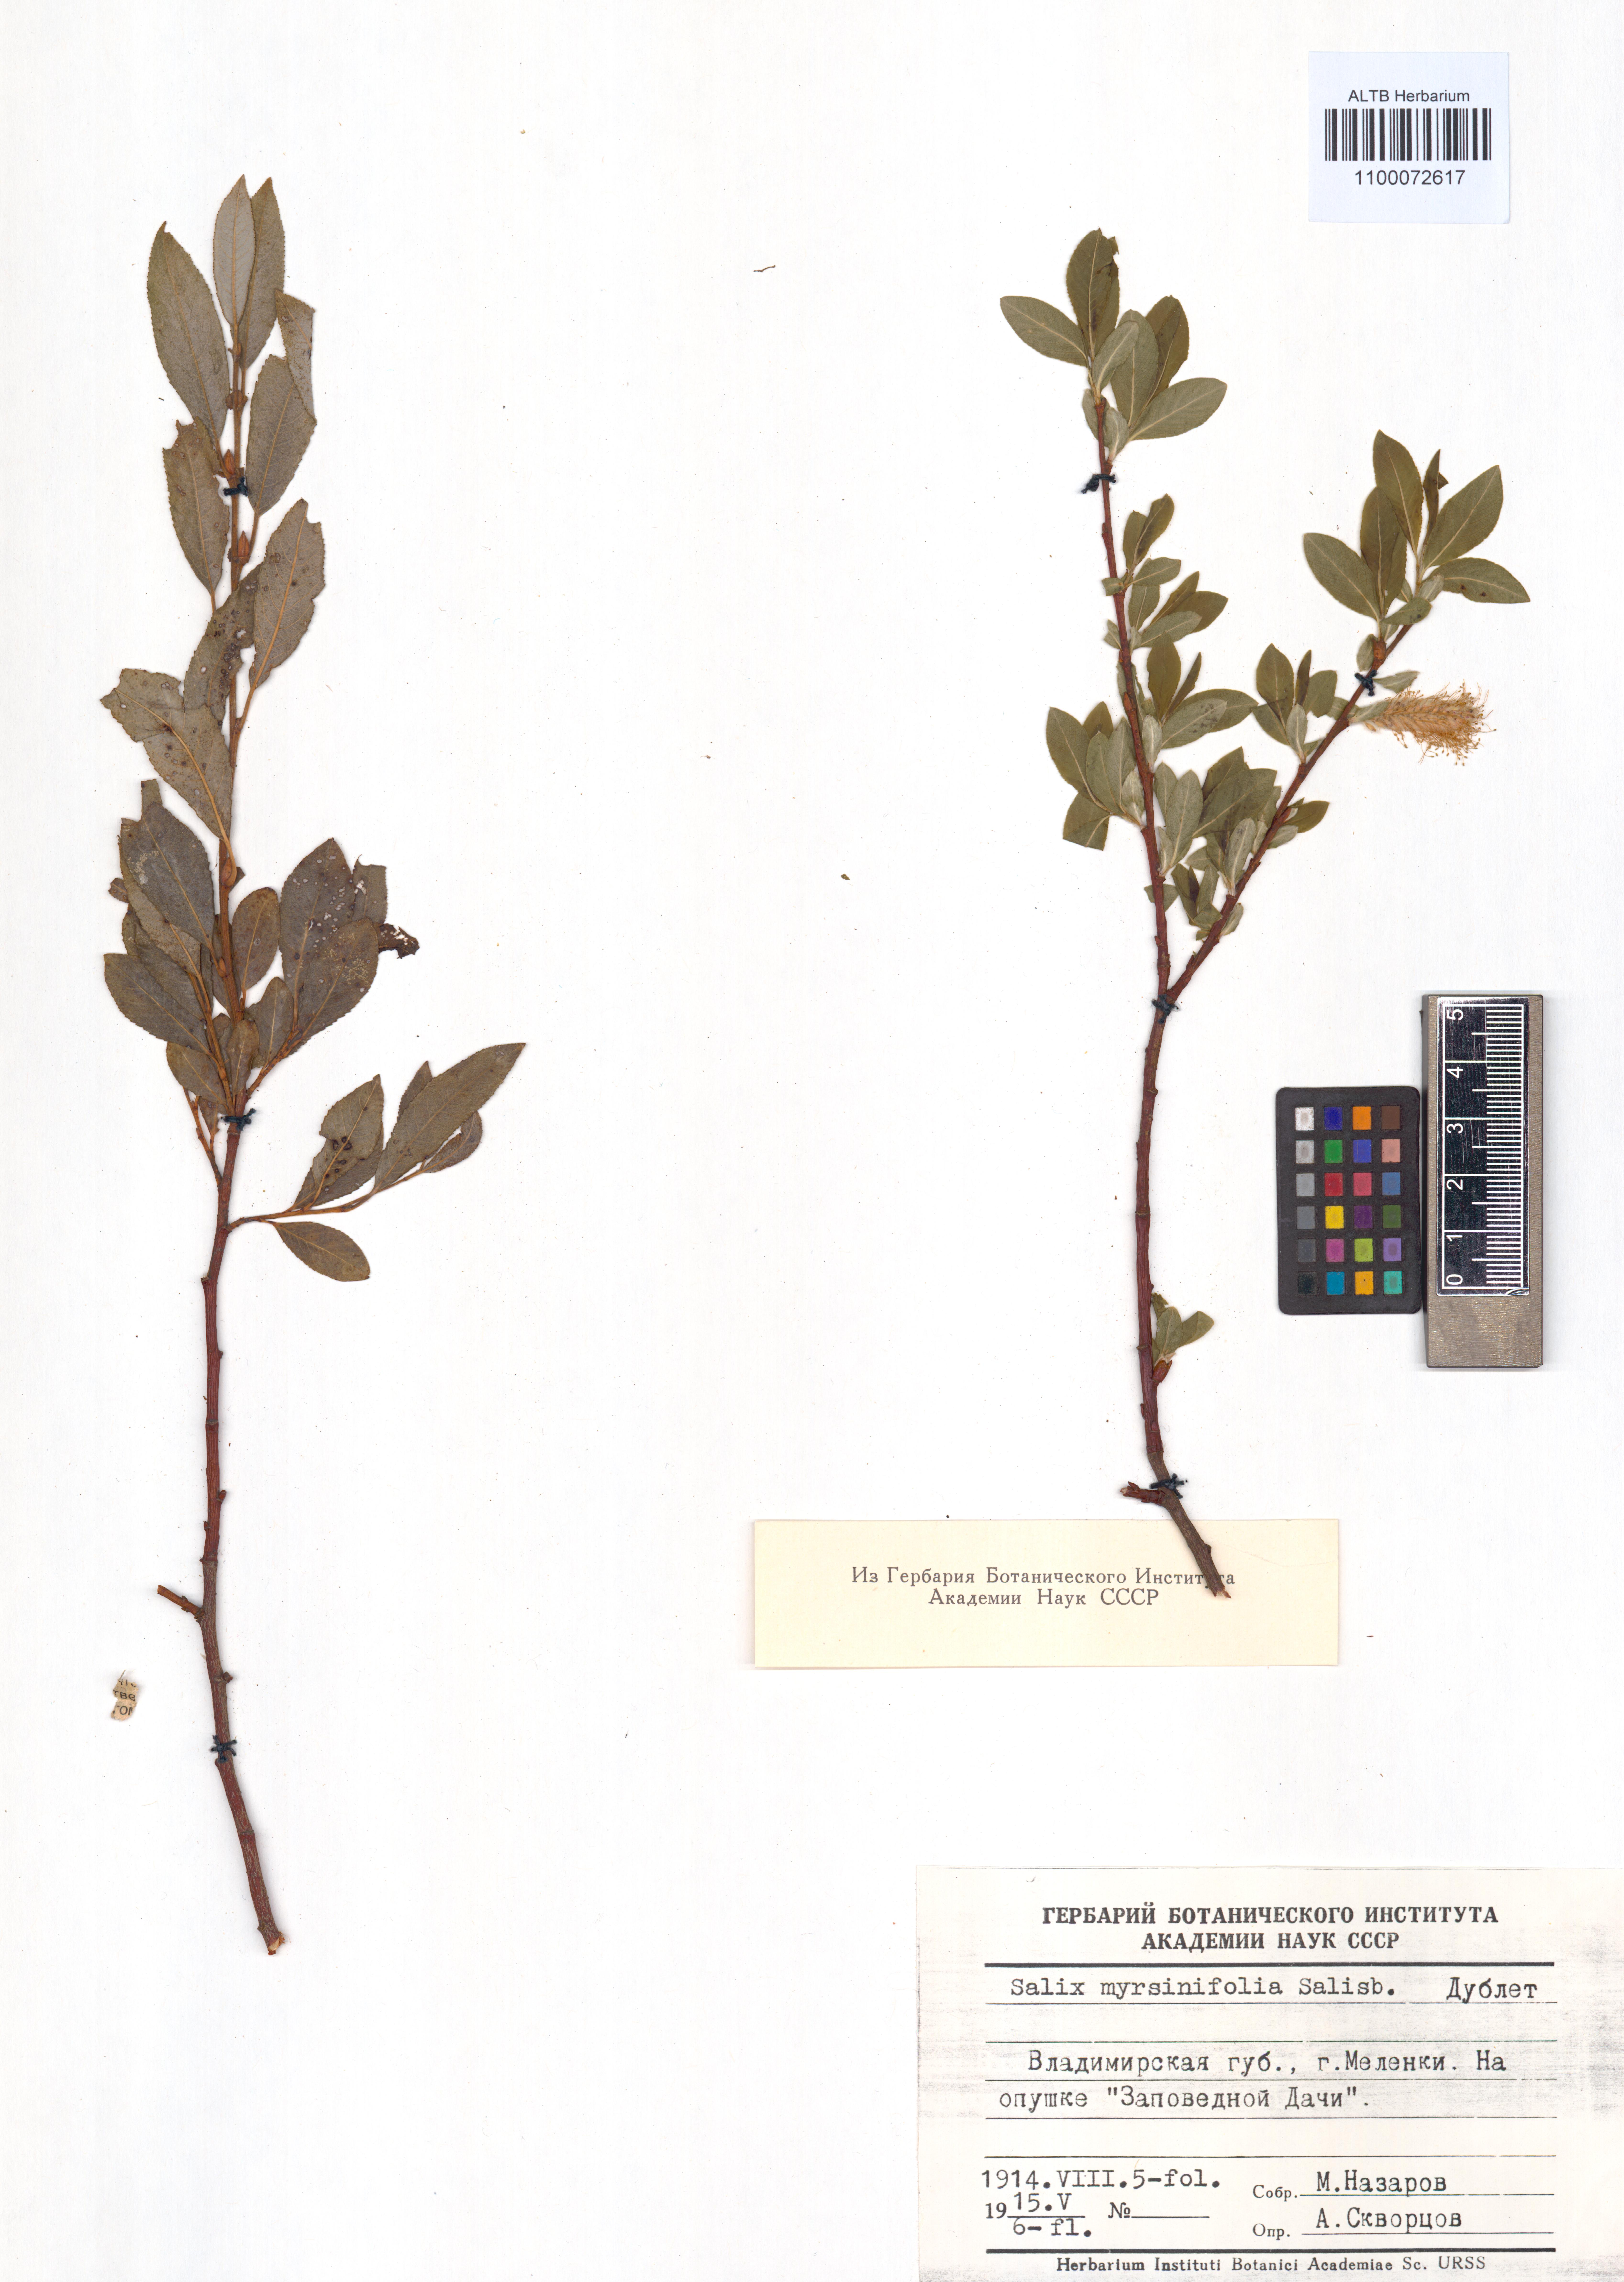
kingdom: Plantae
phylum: Tracheophyta
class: Magnoliopsida
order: Malpighiales
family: Salicaceae
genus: Salix
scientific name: Salix myrsinifolia
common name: Dark-leaved willow
